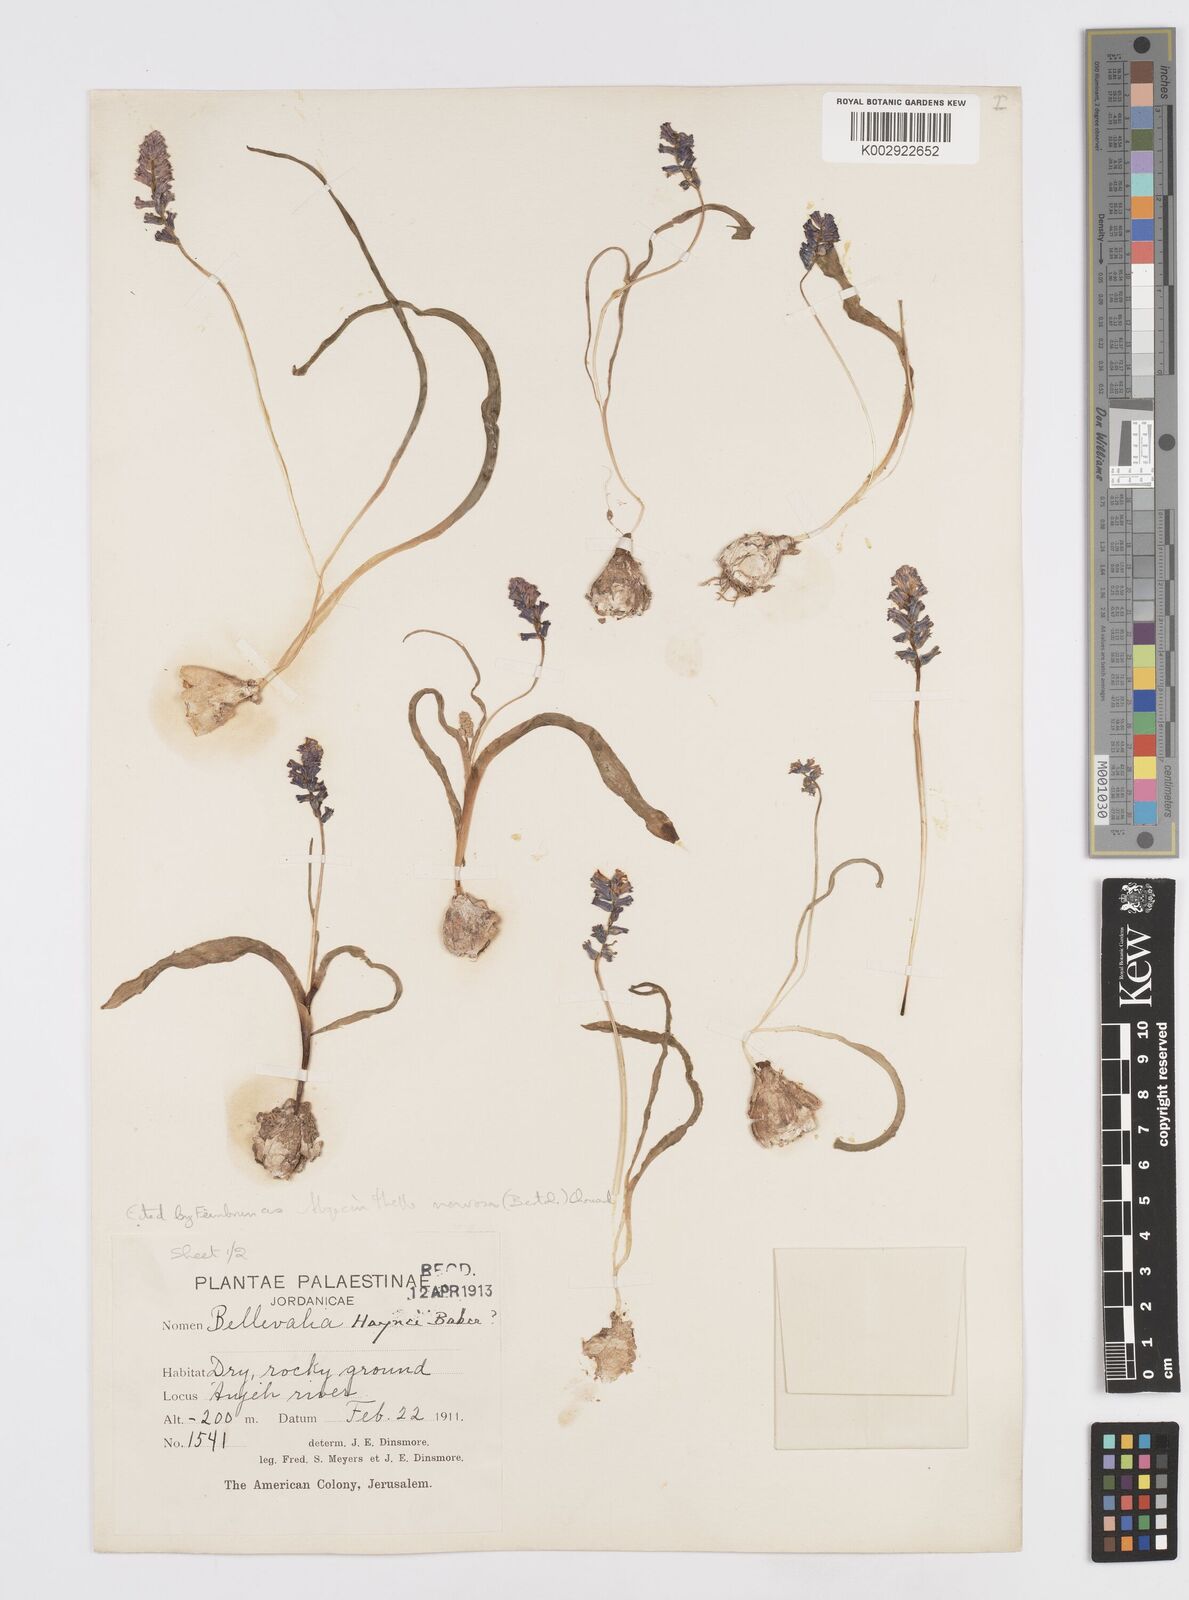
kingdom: Plantae
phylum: Tracheophyta
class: Liliopsida
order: Asparagales
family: Asparagaceae
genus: Hyacinthella
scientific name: Hyacinthella nervosa
